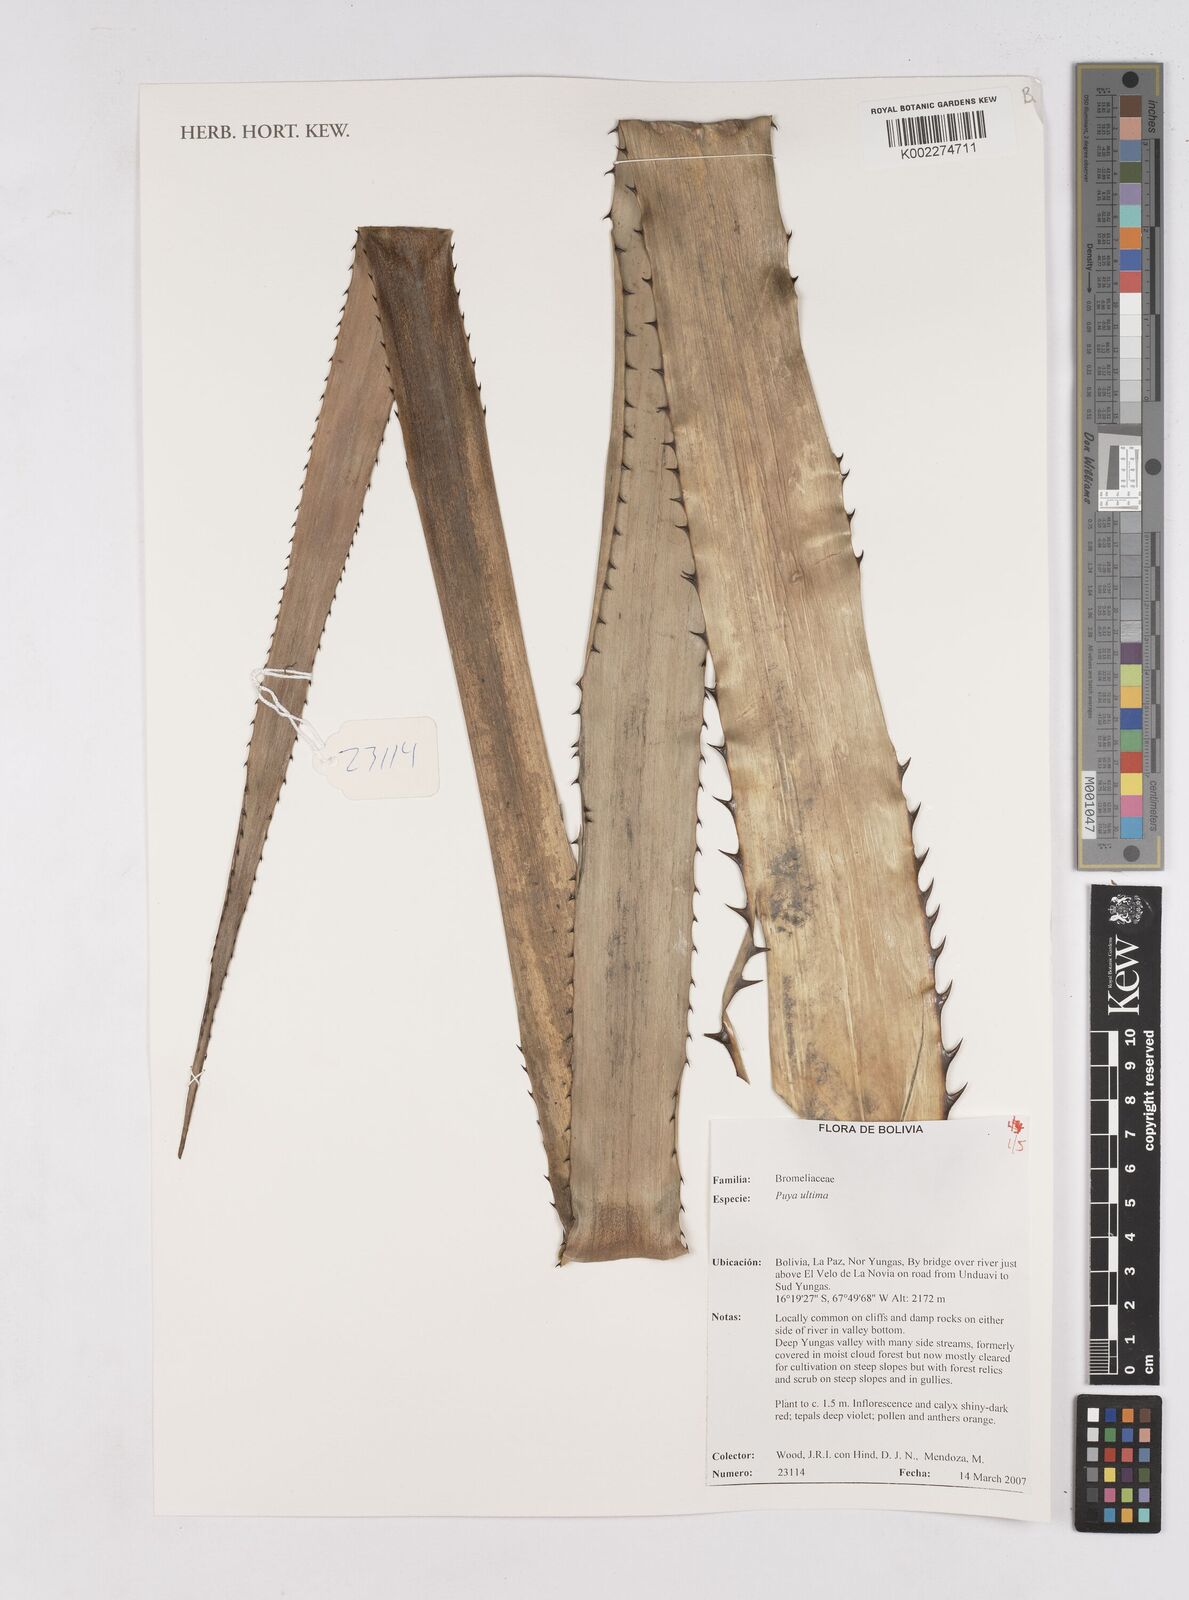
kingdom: Plantae
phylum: Tracheophyta
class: Liliopsida
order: Poales
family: Bromeliaceae
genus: Puya
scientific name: Puya
